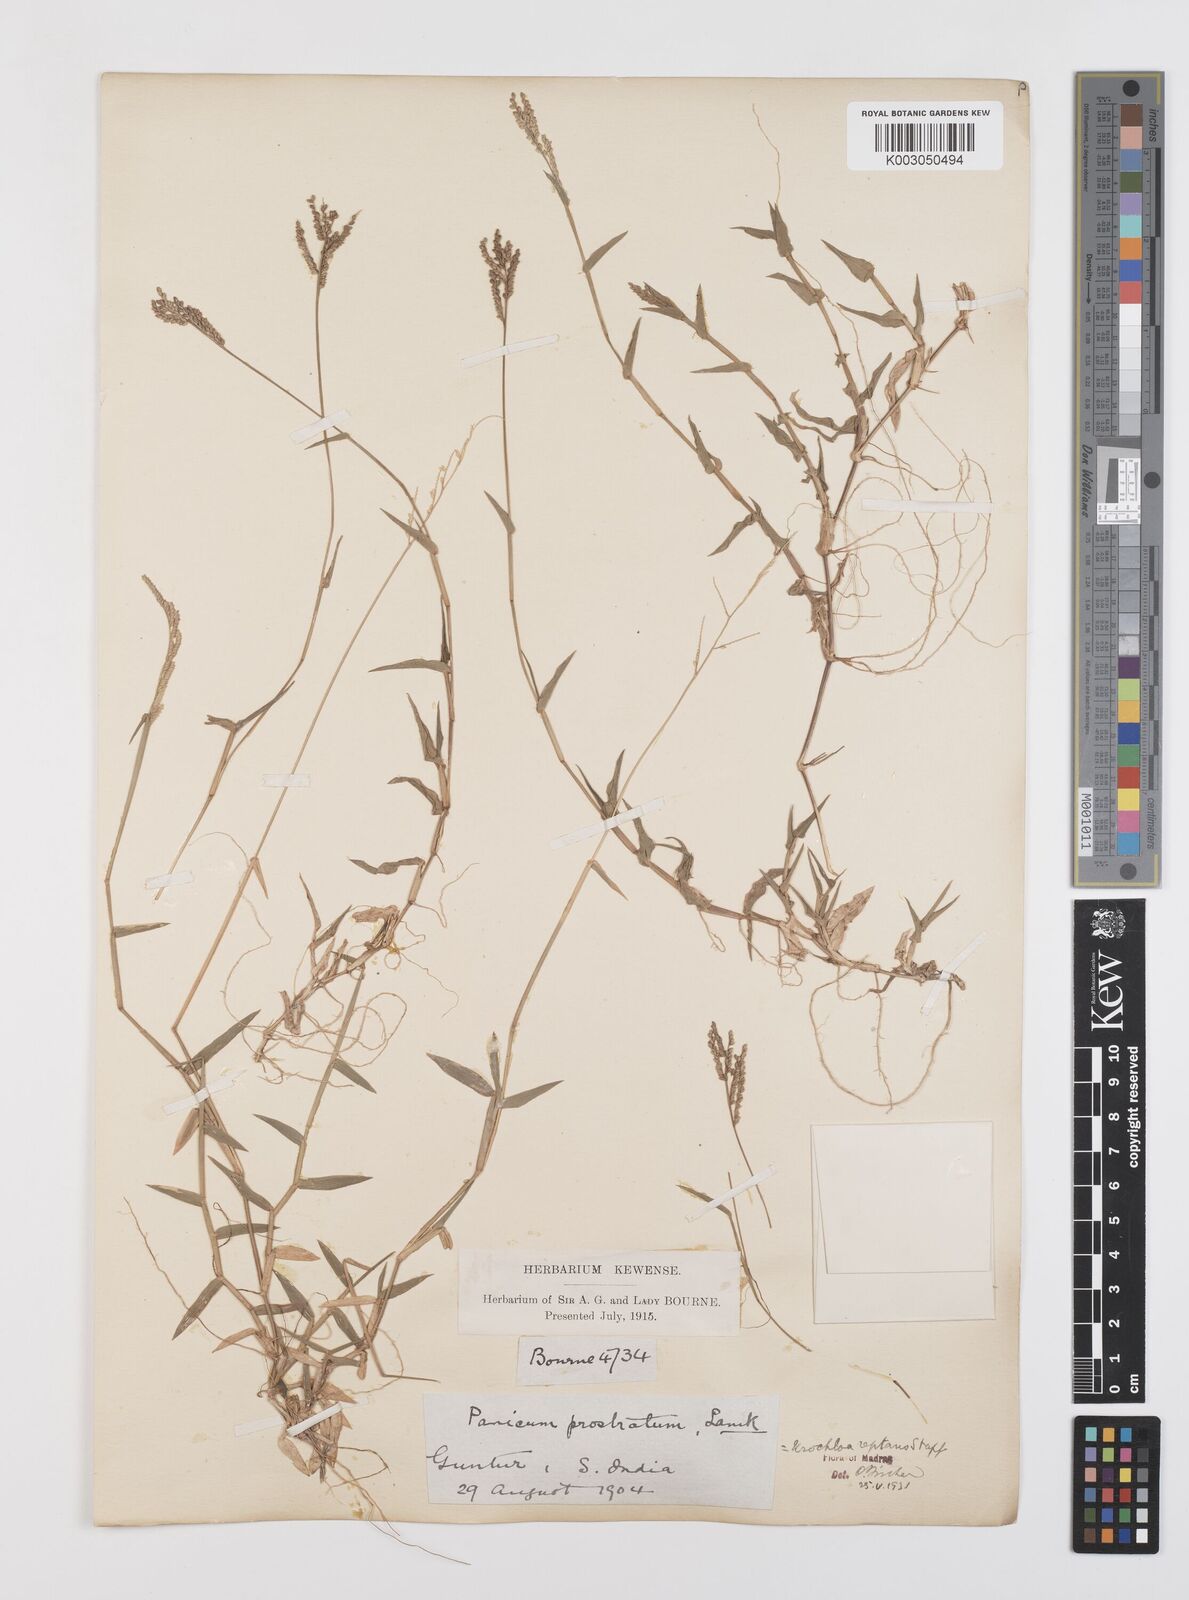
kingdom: Plantae
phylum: Tracheophyta
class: Liliopsida
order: Poales
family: Poaceae
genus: Urochloa
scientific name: Urochloa reptans
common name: Sprawling signalgrass
